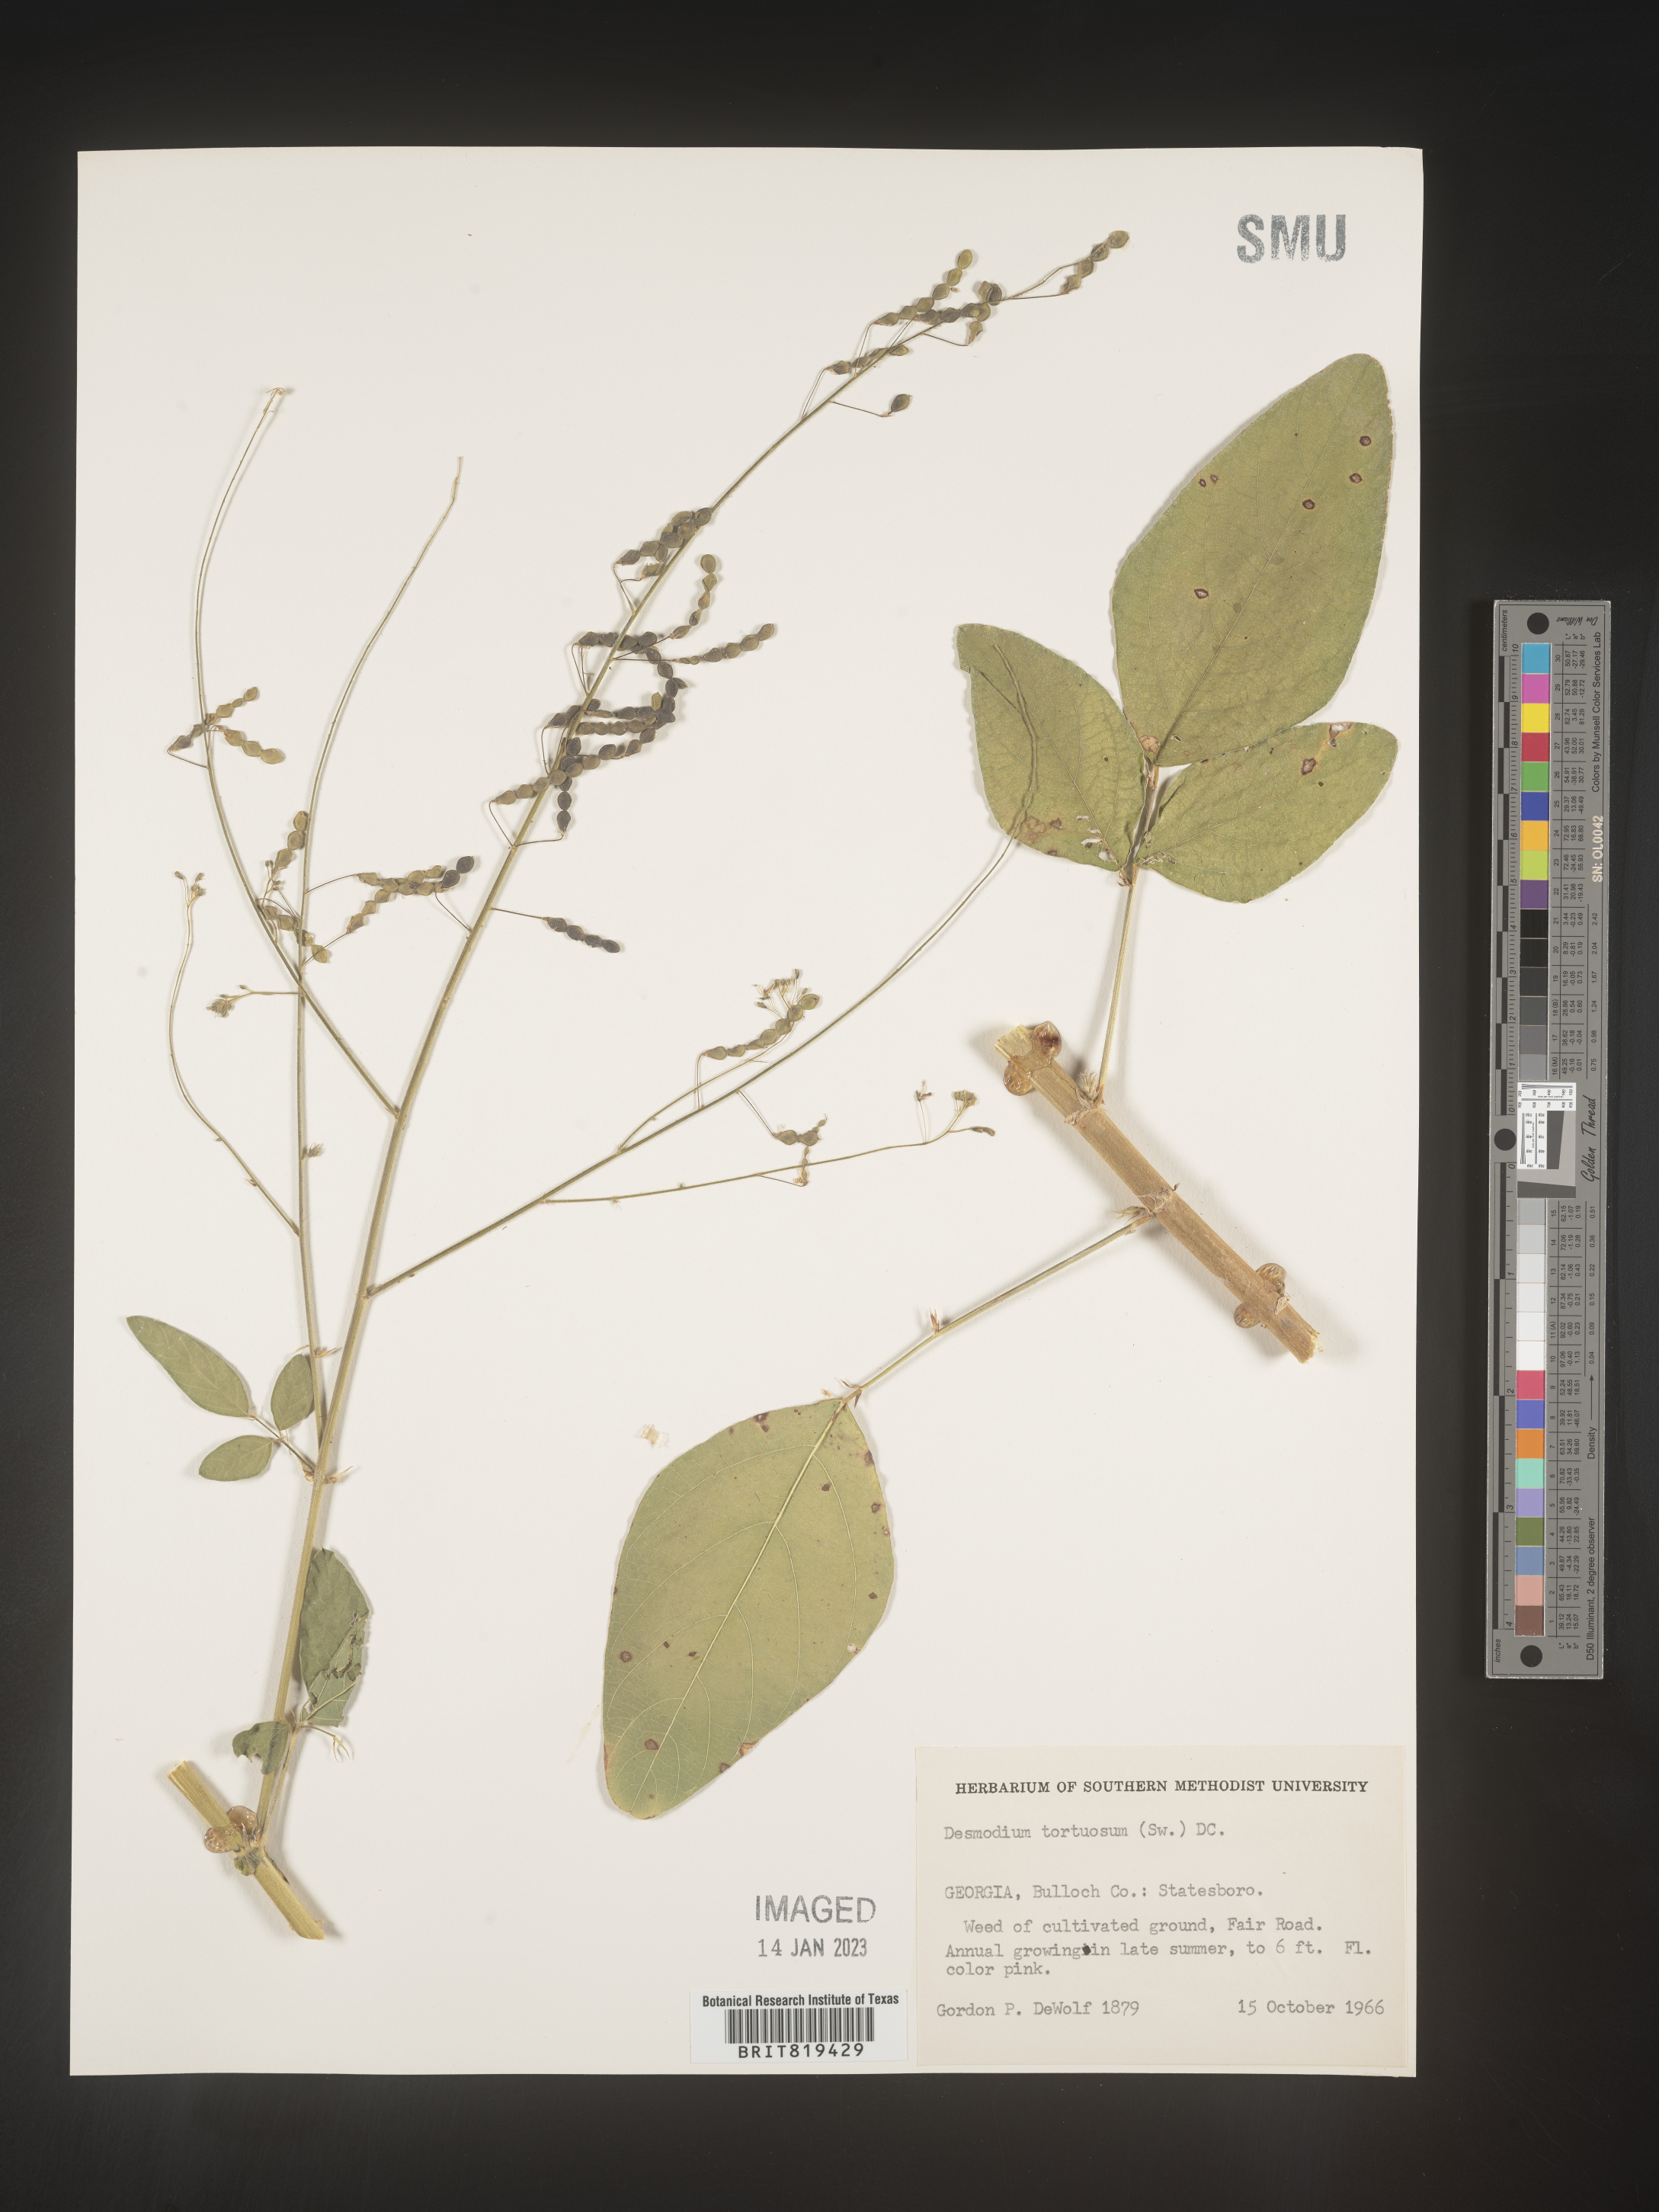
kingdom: Plantae
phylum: Tracheophyta
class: Magnoliopsida
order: Fabales
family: Fabaceae
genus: Desmodium
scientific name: Desmodium tortuosum
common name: Dixie ticktrefoil
